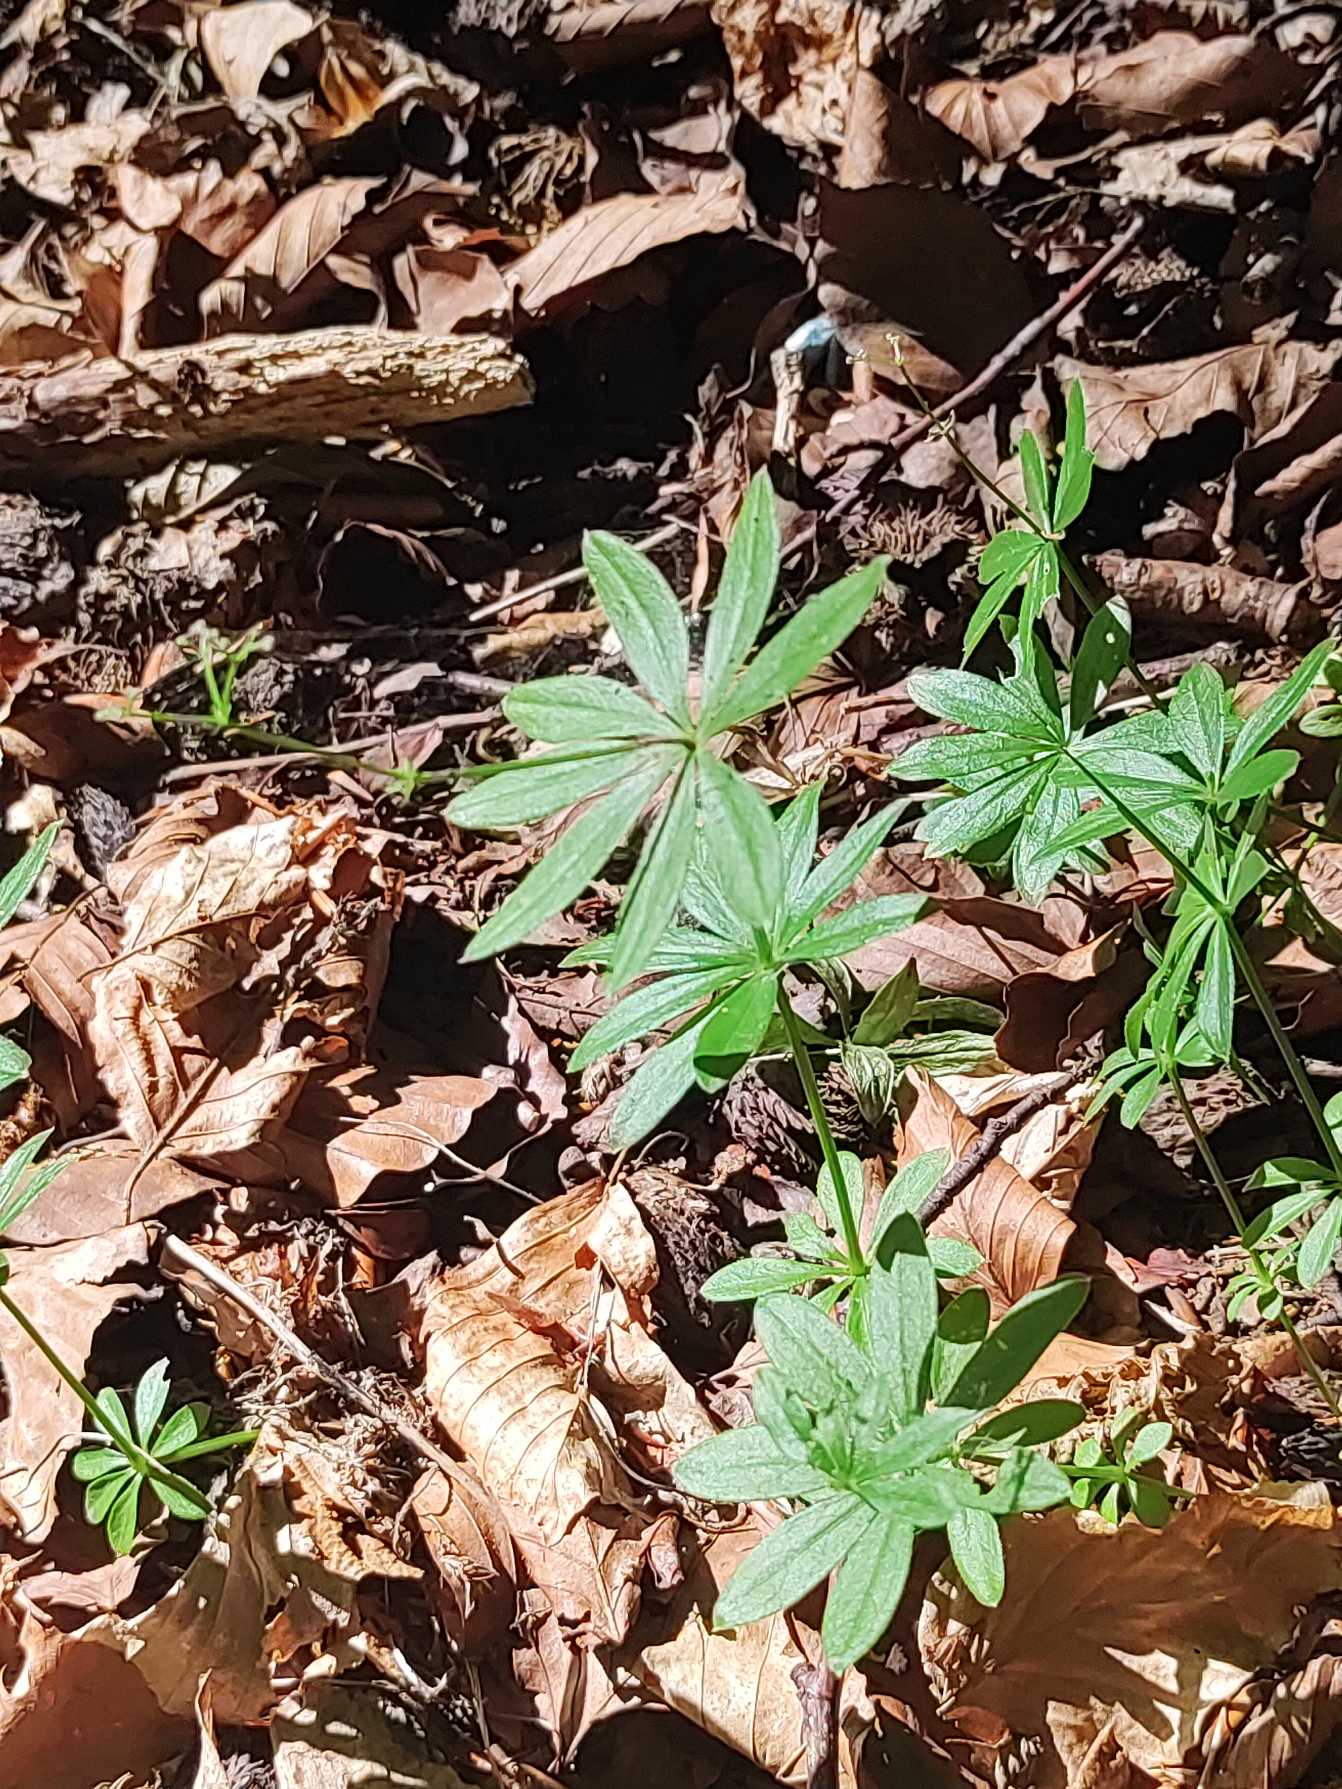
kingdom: Plantae
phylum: Tracheophyta
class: Magnoliopsida
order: Gentianales
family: Rubiaceae
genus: Galium
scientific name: Galium odoratum
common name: Skovmærke
